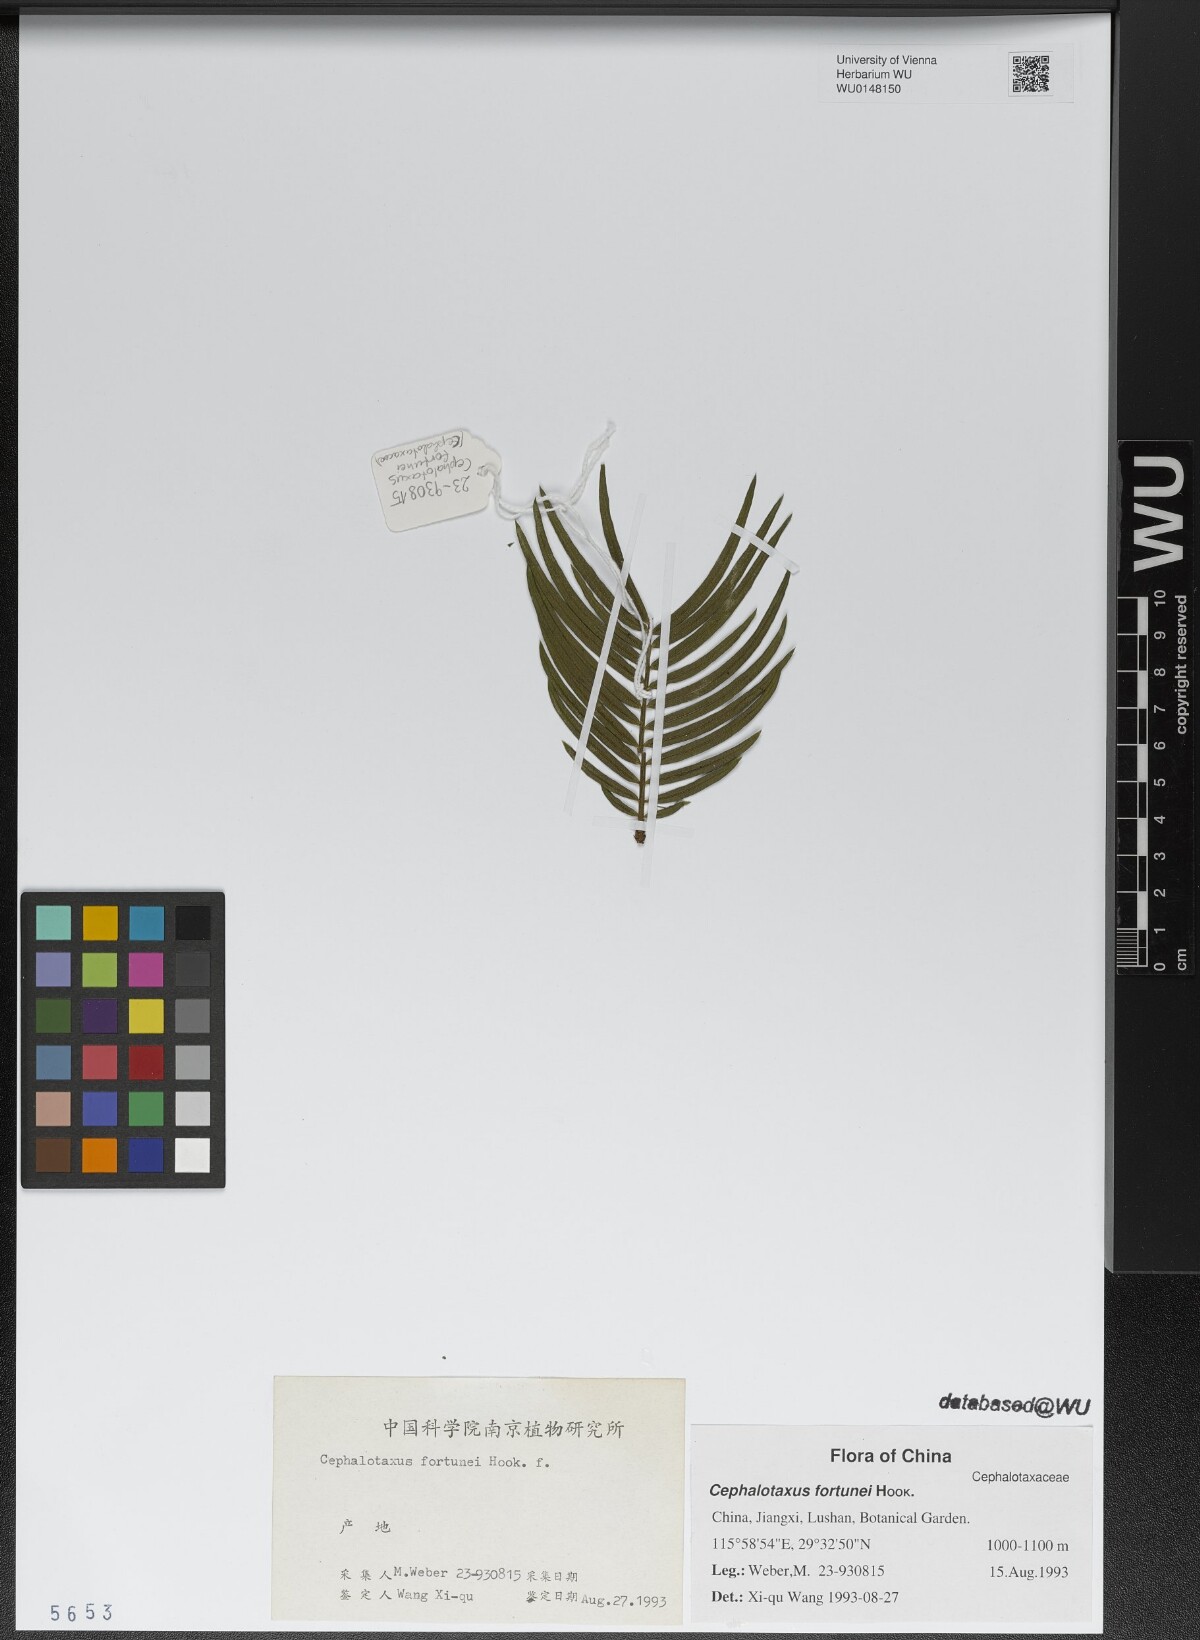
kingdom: Plantae
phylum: Tracheophyta
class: Pinopsida
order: Pinales
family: Cephalotaxaceae
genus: Cephalotaxus
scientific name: Cephalotaxus fortunei
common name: Chinese plum-yew
